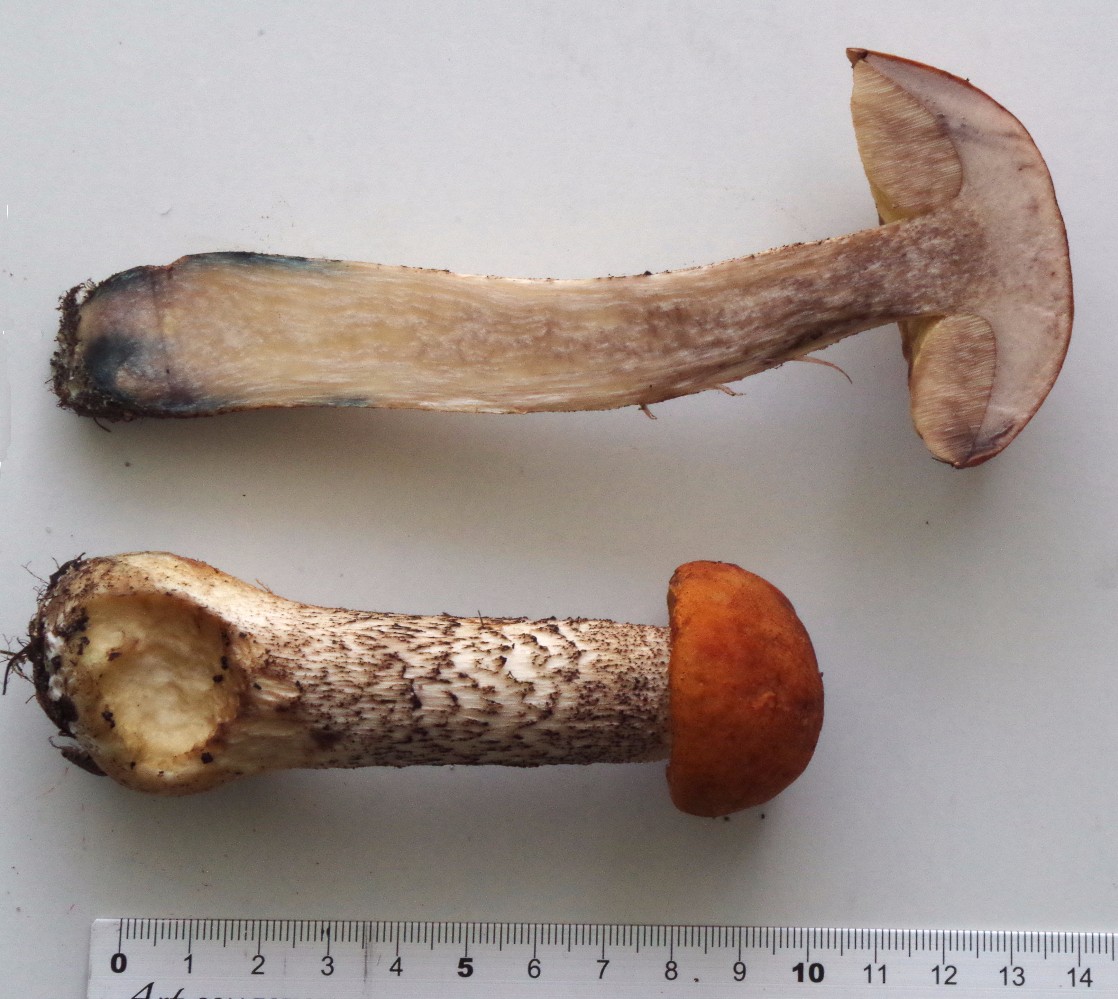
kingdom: Fungi
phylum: Basidiomycota
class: Agaricomycetes
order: Boletales
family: Boletaceae
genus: Leccinum
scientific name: Leccinum versipelle
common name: orange skælrørhat
